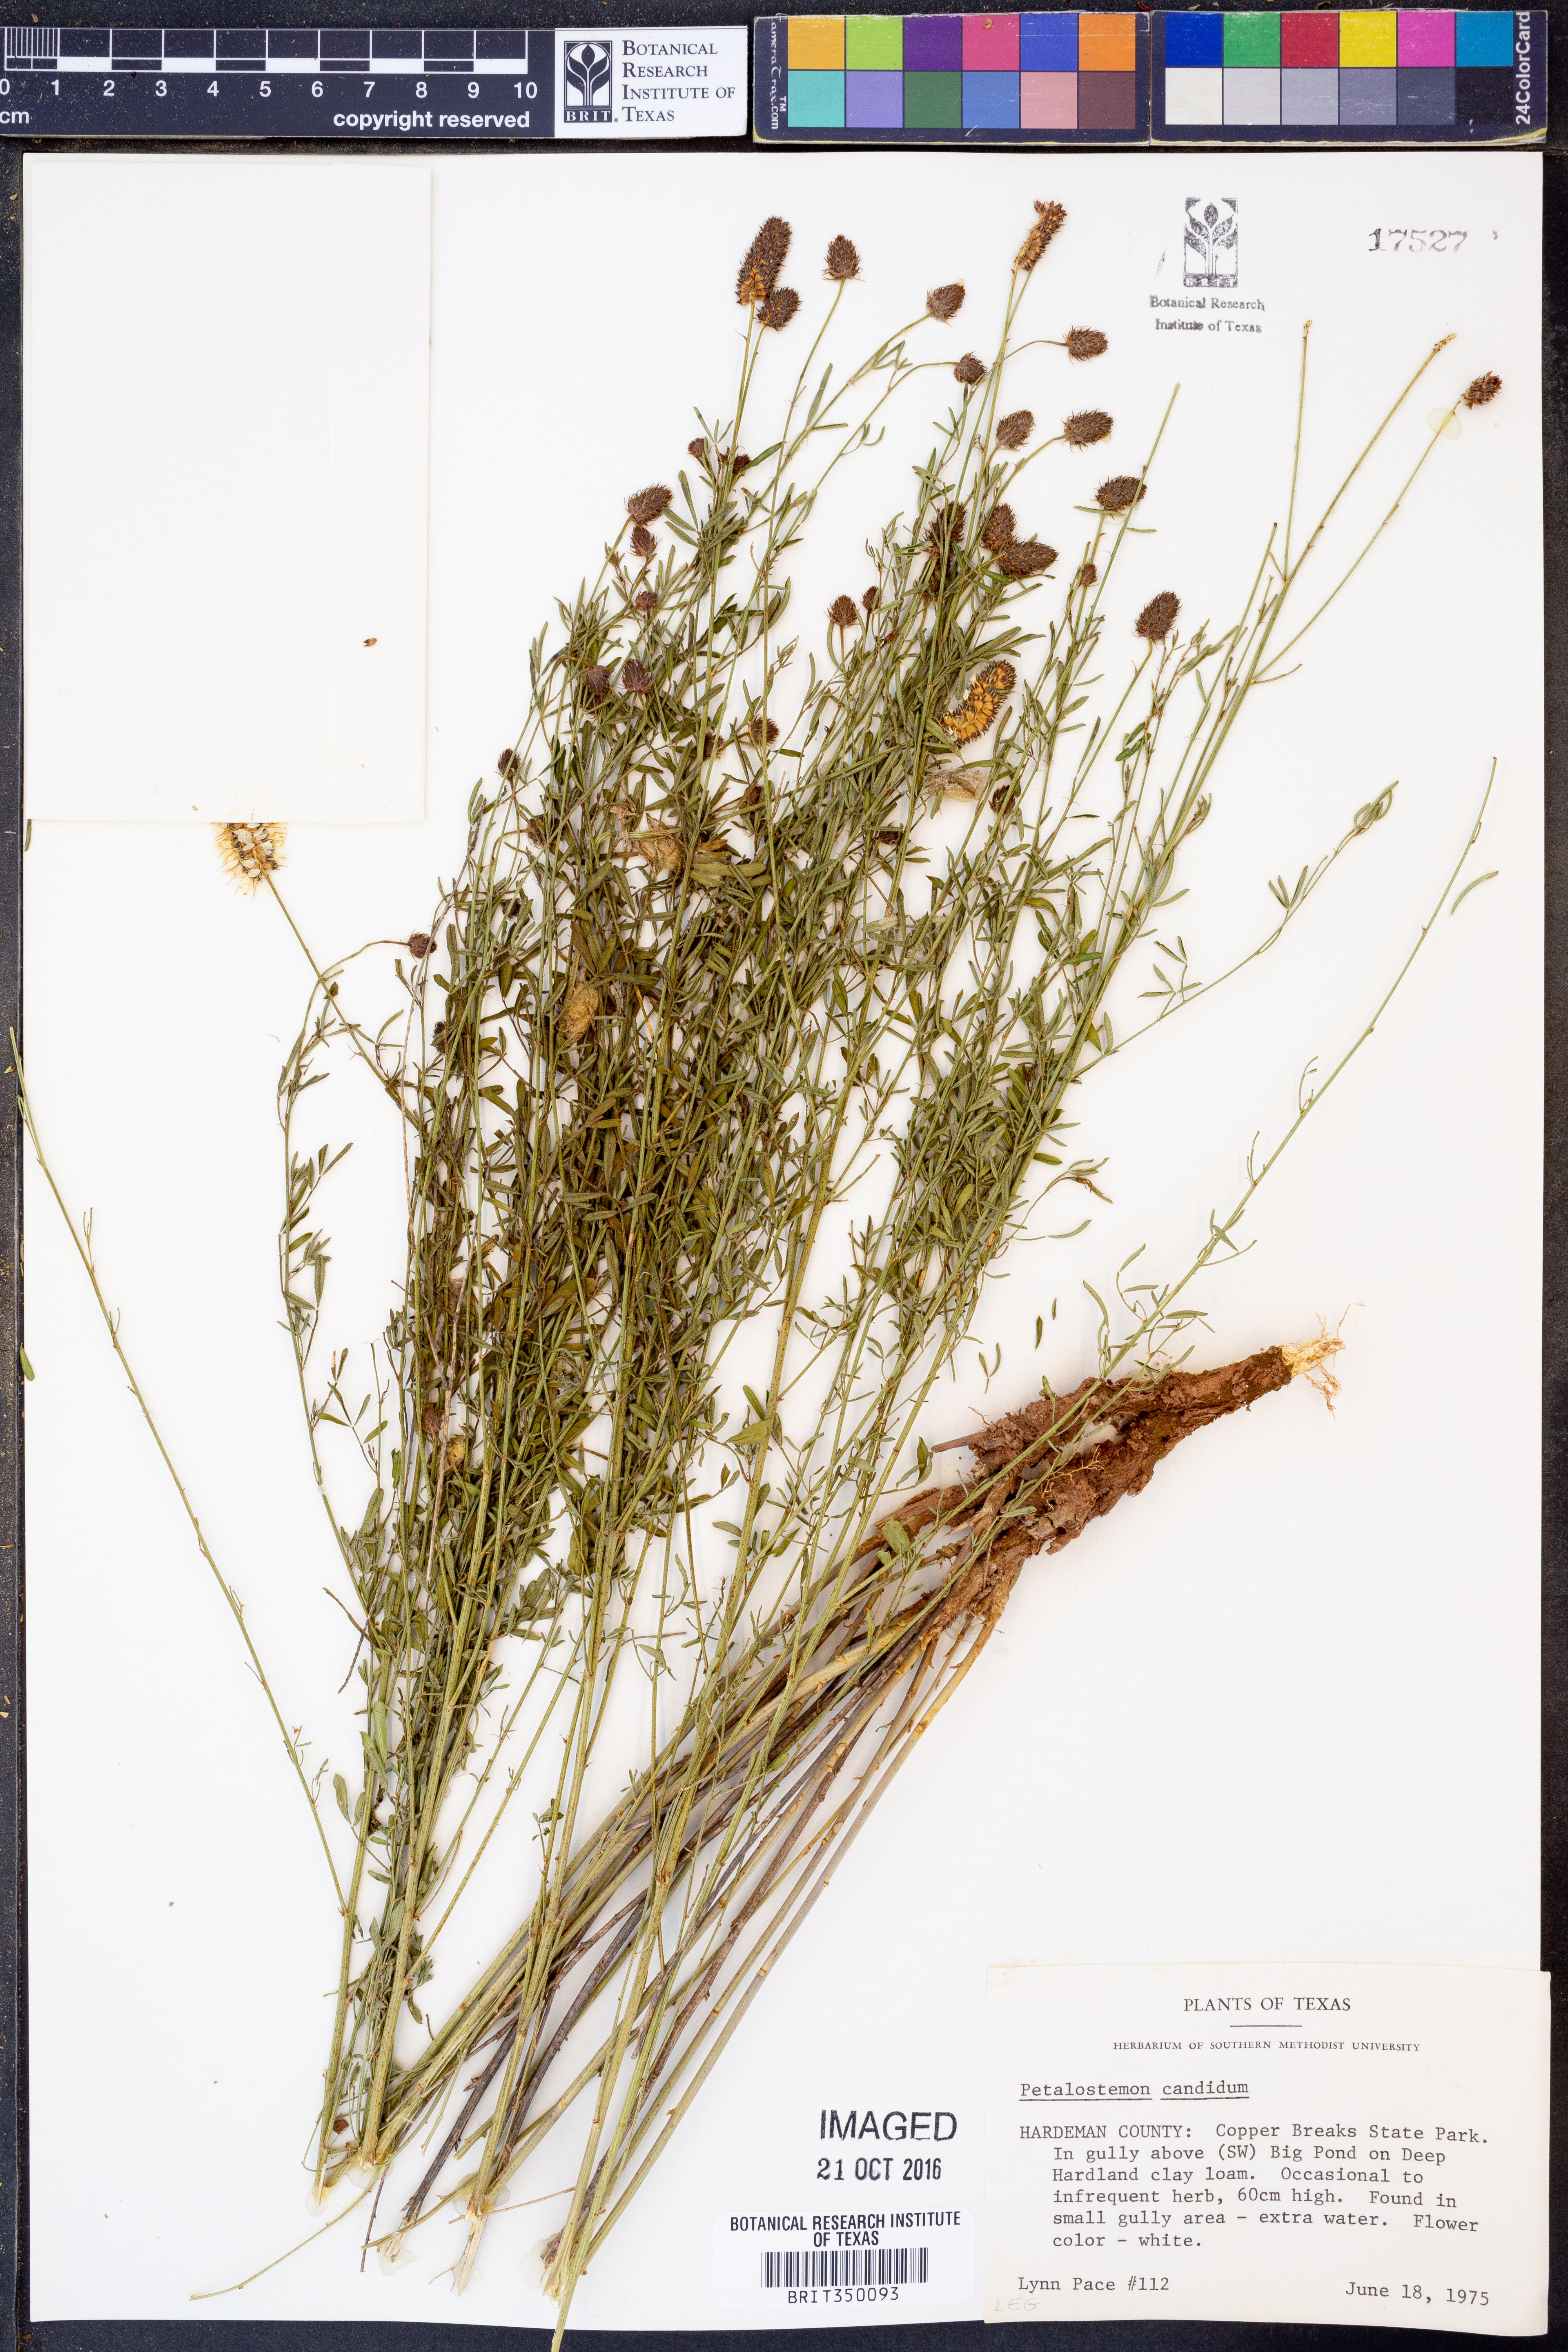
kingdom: Plantae
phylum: Tracheophyta
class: Magnoliopsida
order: Fabales
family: Fabaceae
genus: Dalea
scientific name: Dalea candida
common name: White prairie-clover
